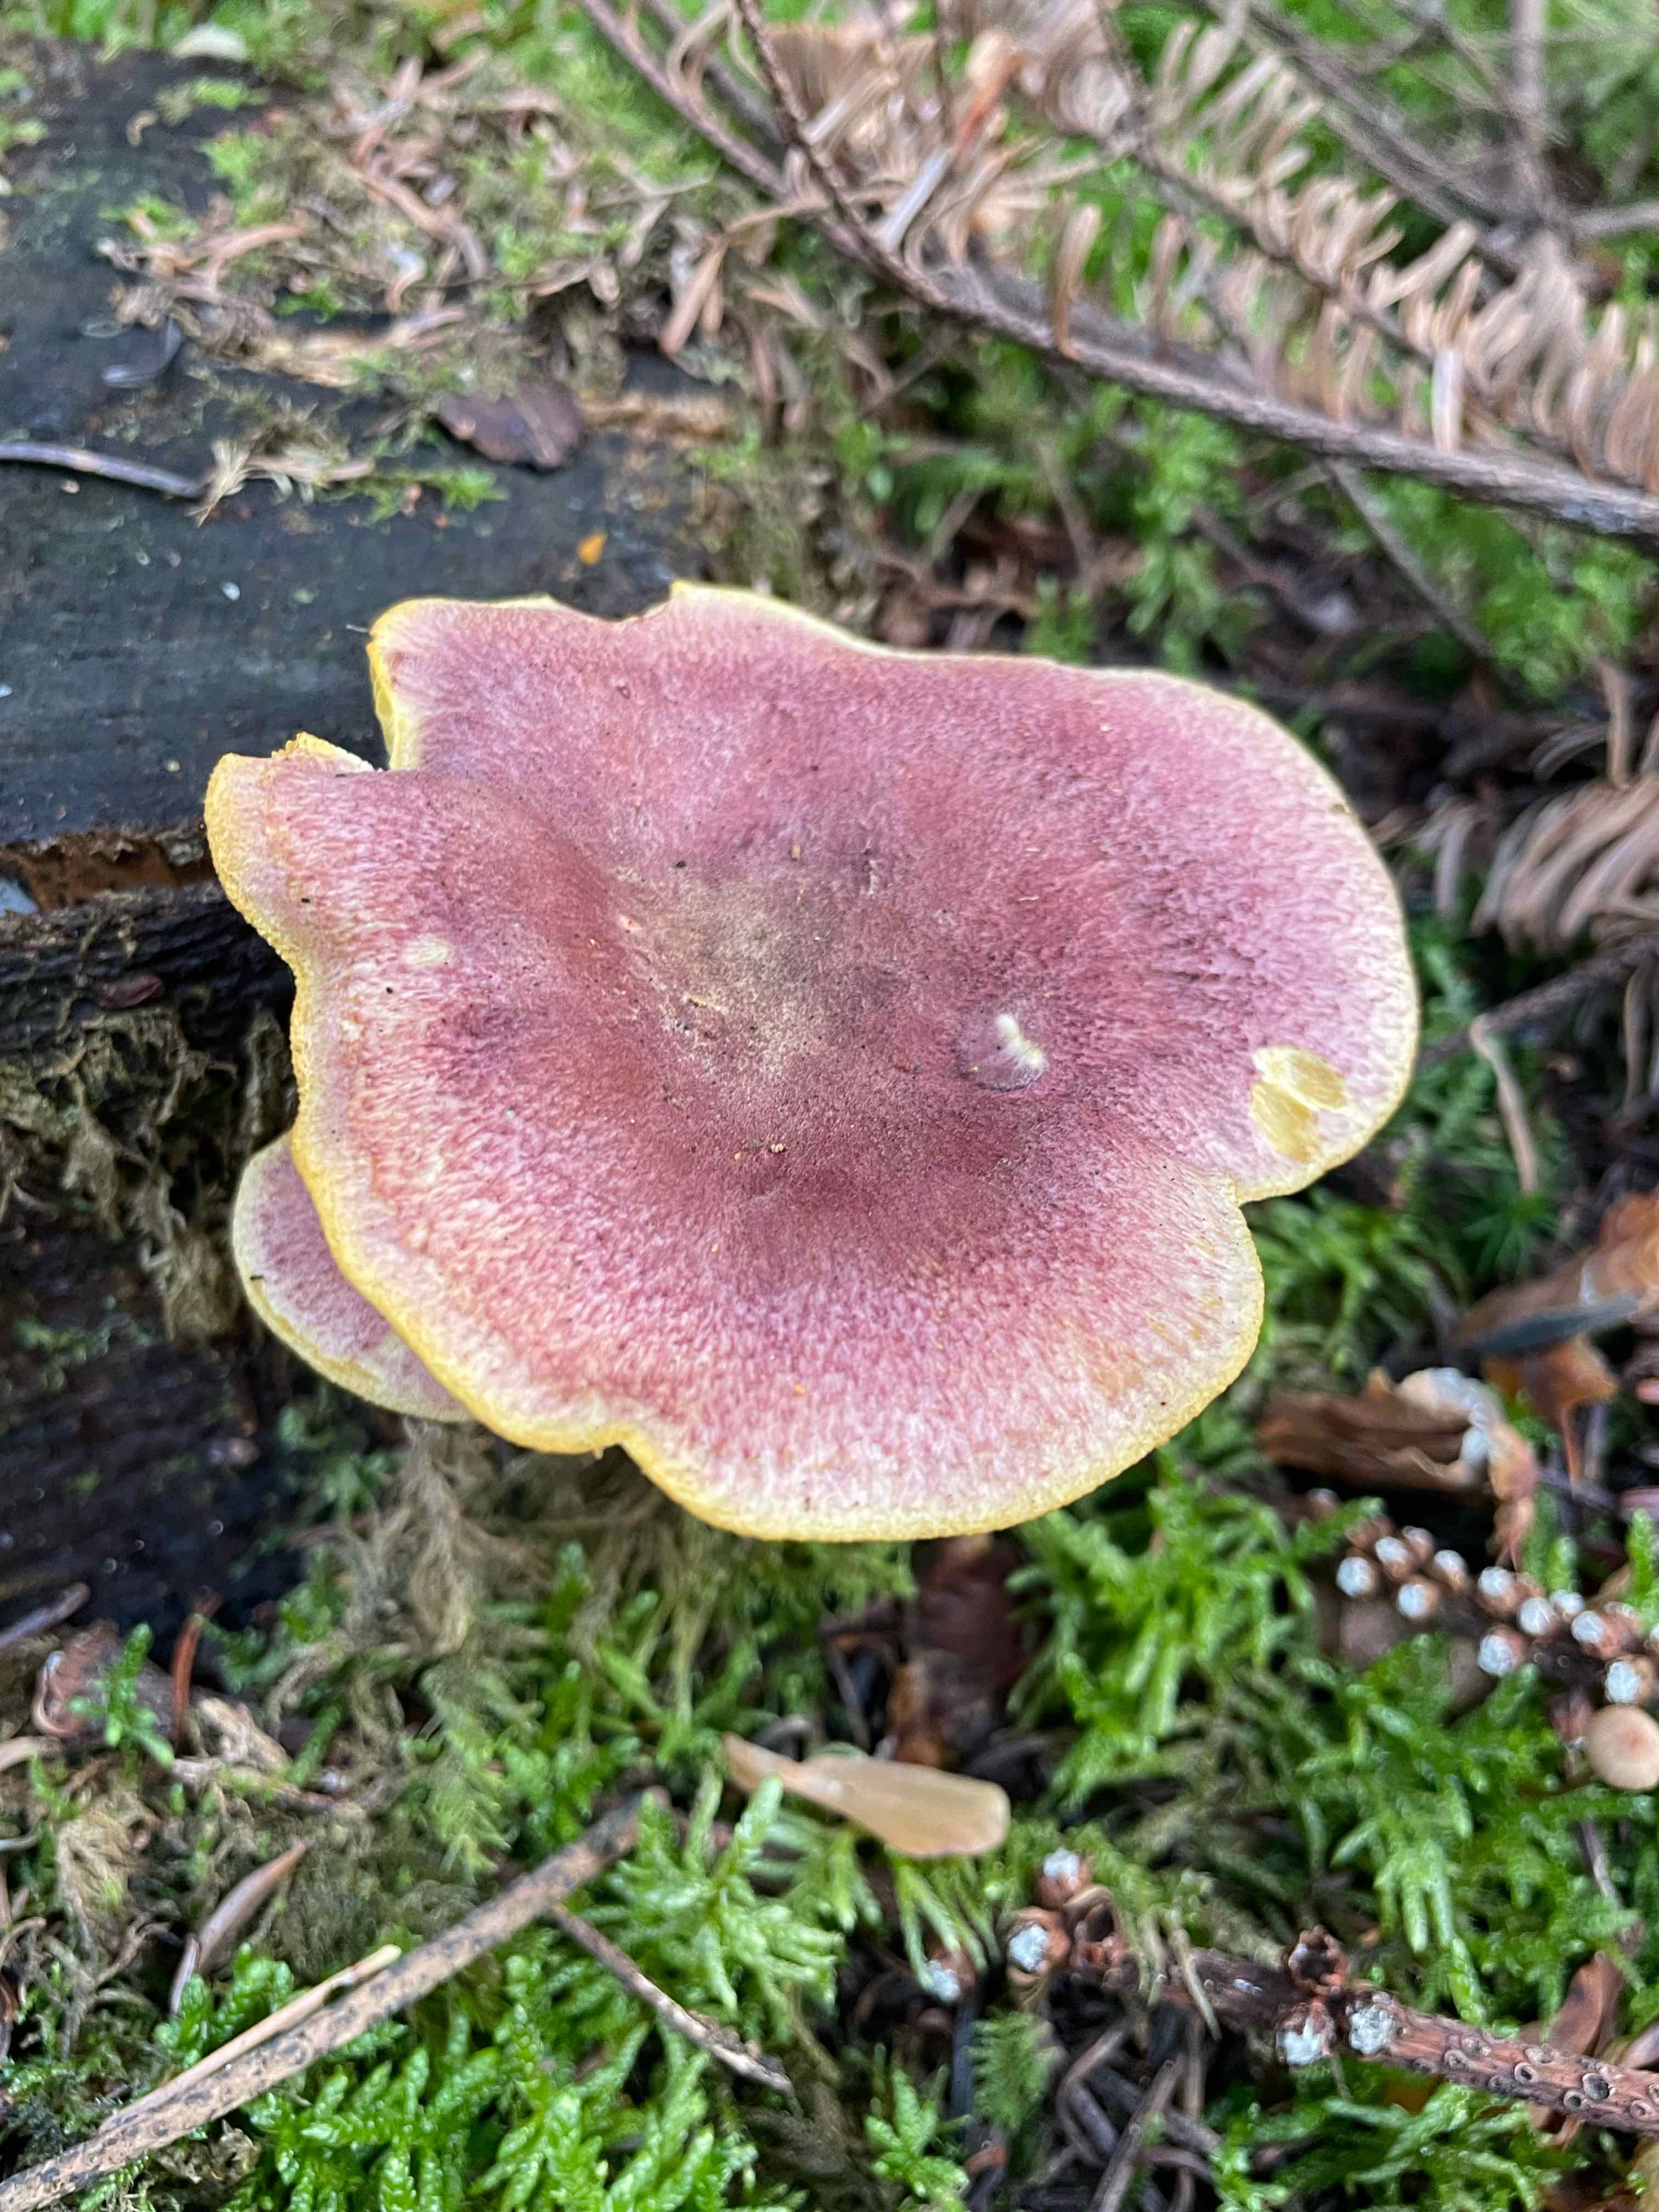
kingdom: Fungi
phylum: Basidiomycota
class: Agaricomycetes
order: Agaricales
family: Tricholomataceae
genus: Tricholomopsis
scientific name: Tricholomopsis rutilans
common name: purpur-væbnerhat
